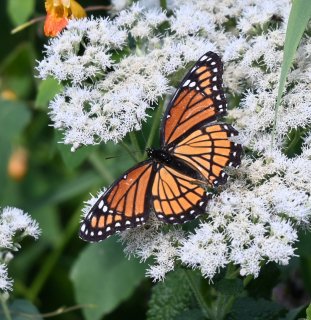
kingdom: Animalia
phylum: Arthropoda
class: Insecta
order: Lepidoptera
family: Nymphalidae
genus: Limenitis
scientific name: Limenitis archippus
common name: Viceroy
